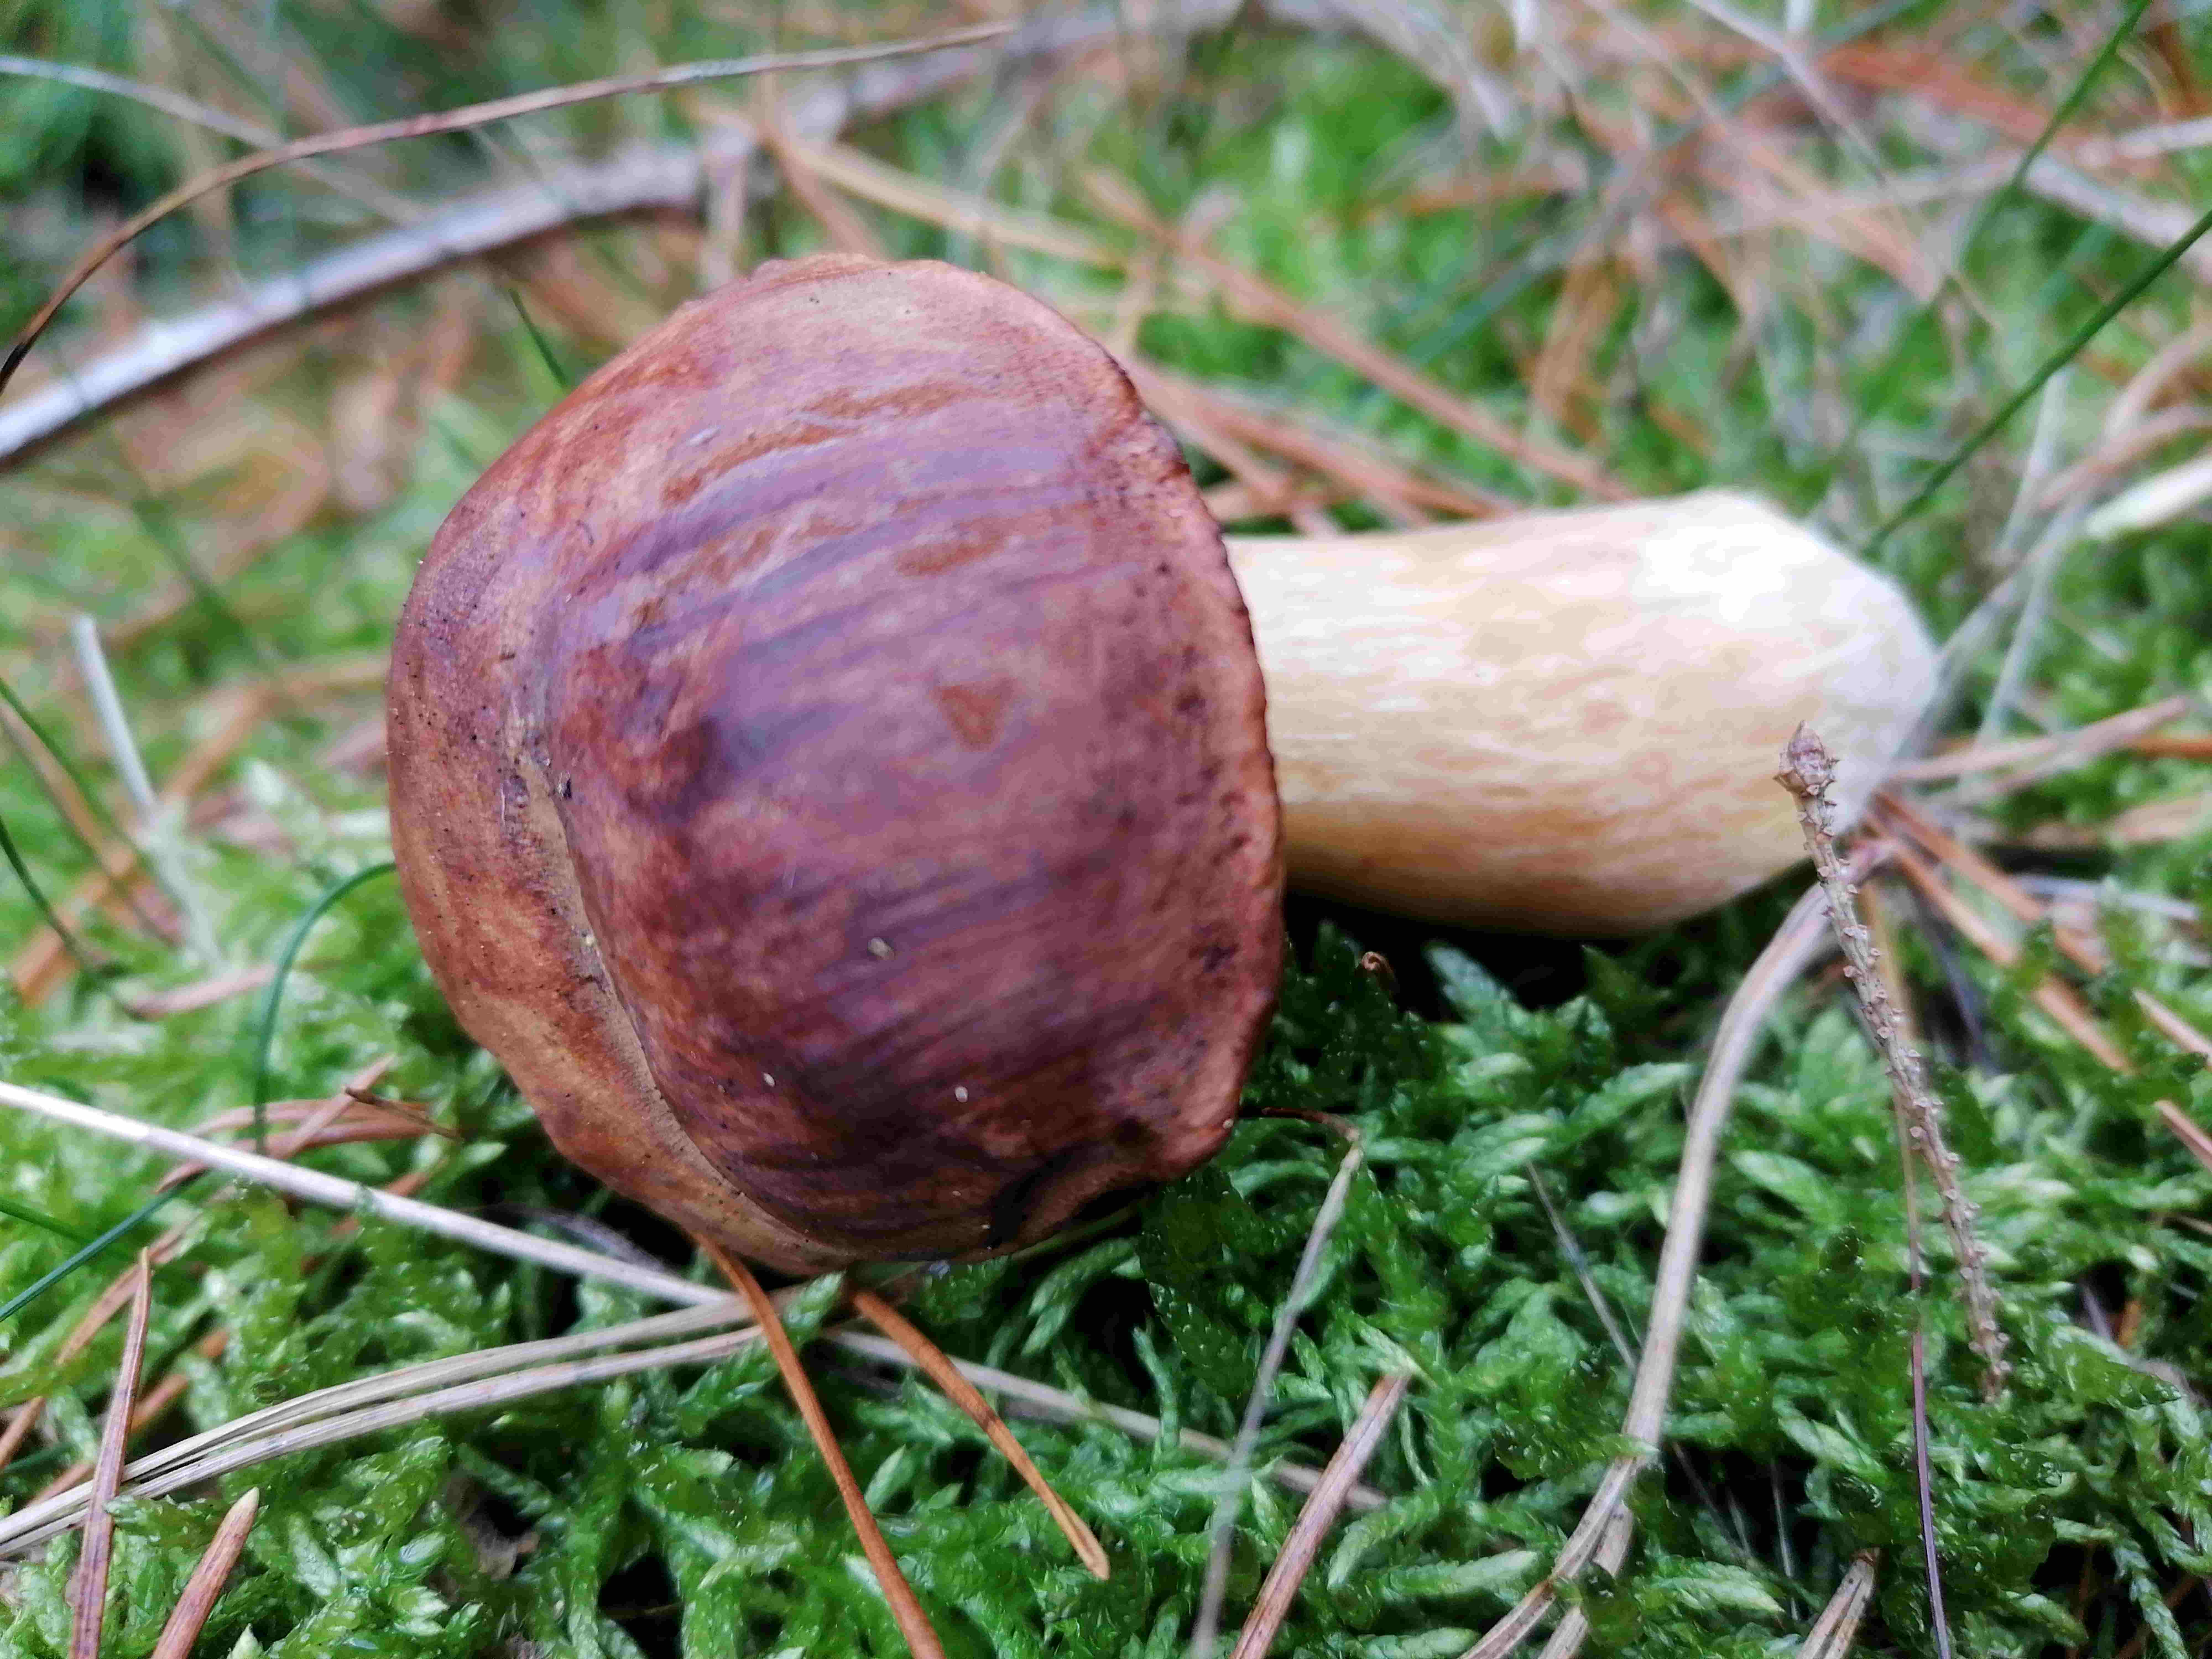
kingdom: Fungi
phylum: Basidiomycota
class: Agaricomycetes
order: Boletales
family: Boletaceae
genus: Imleria
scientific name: Imleria badia
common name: brunstokket rørhat
